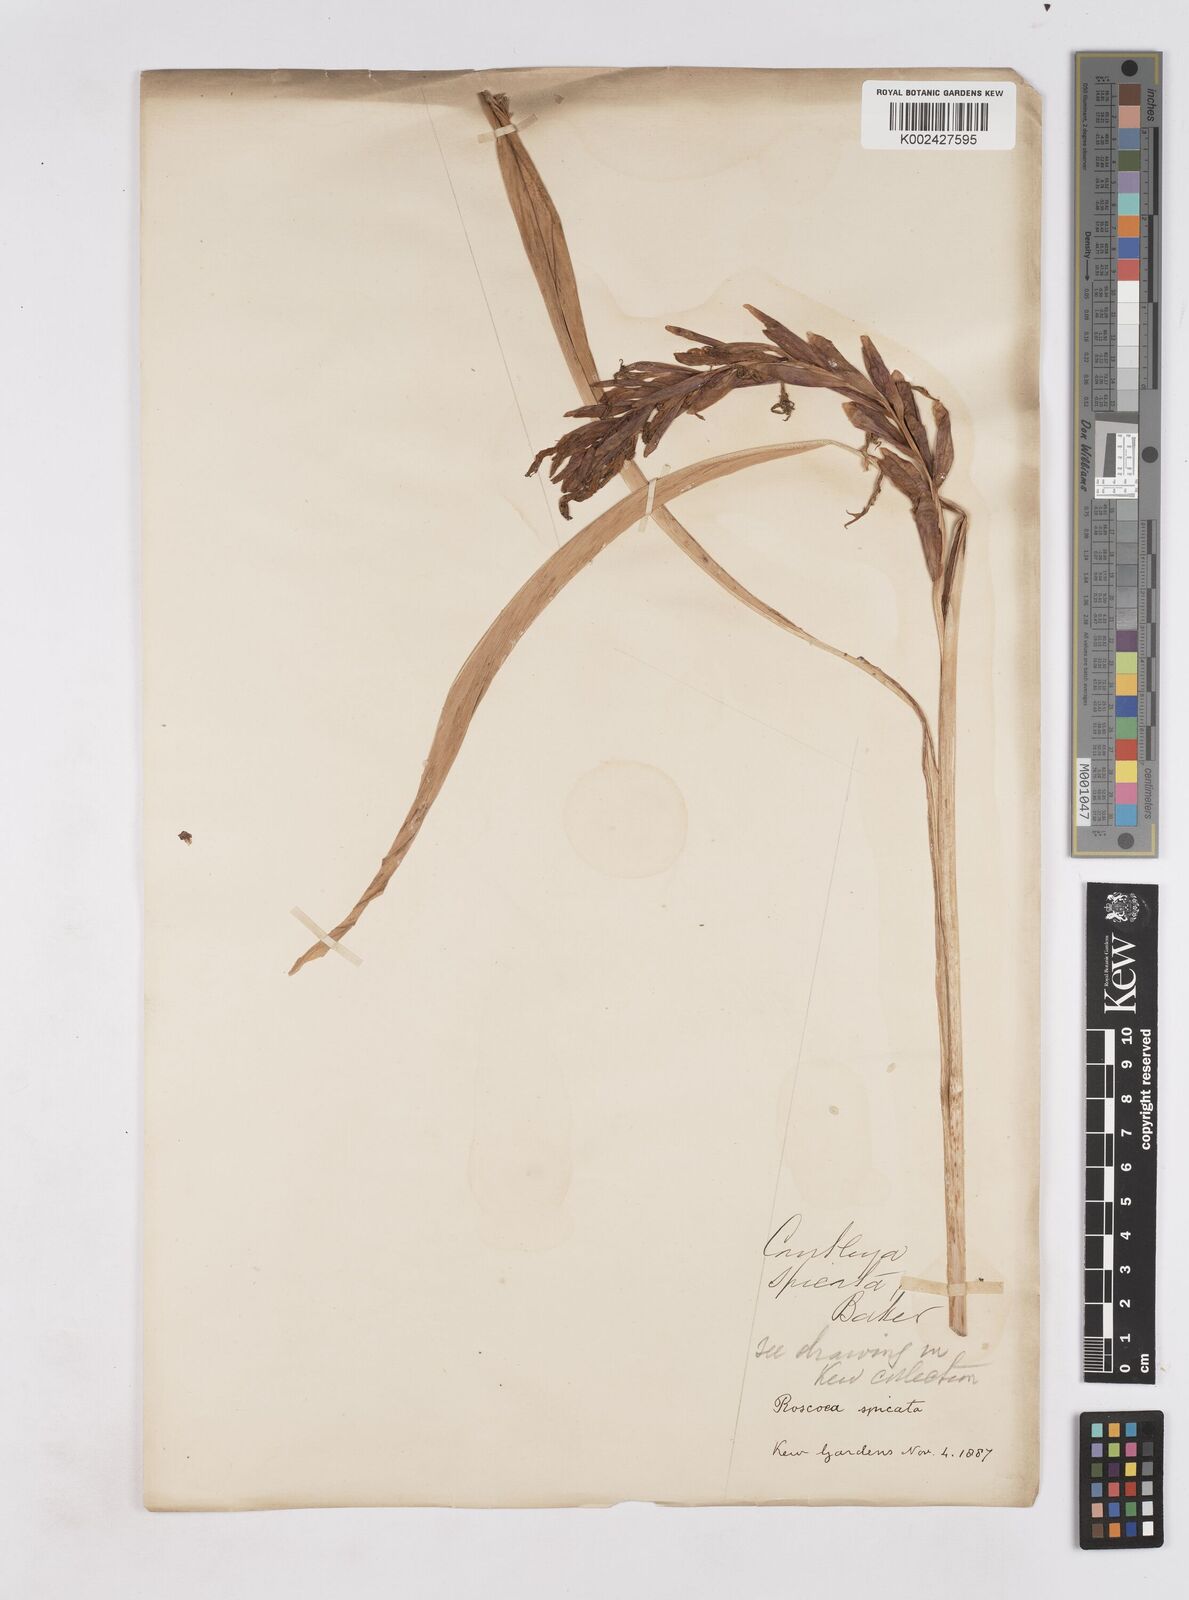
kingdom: Plantae
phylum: Tracheophyta
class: Liliopsida
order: Zingiberales
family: Zingiberaceae
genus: Cautleya
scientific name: Cautleya spicata
